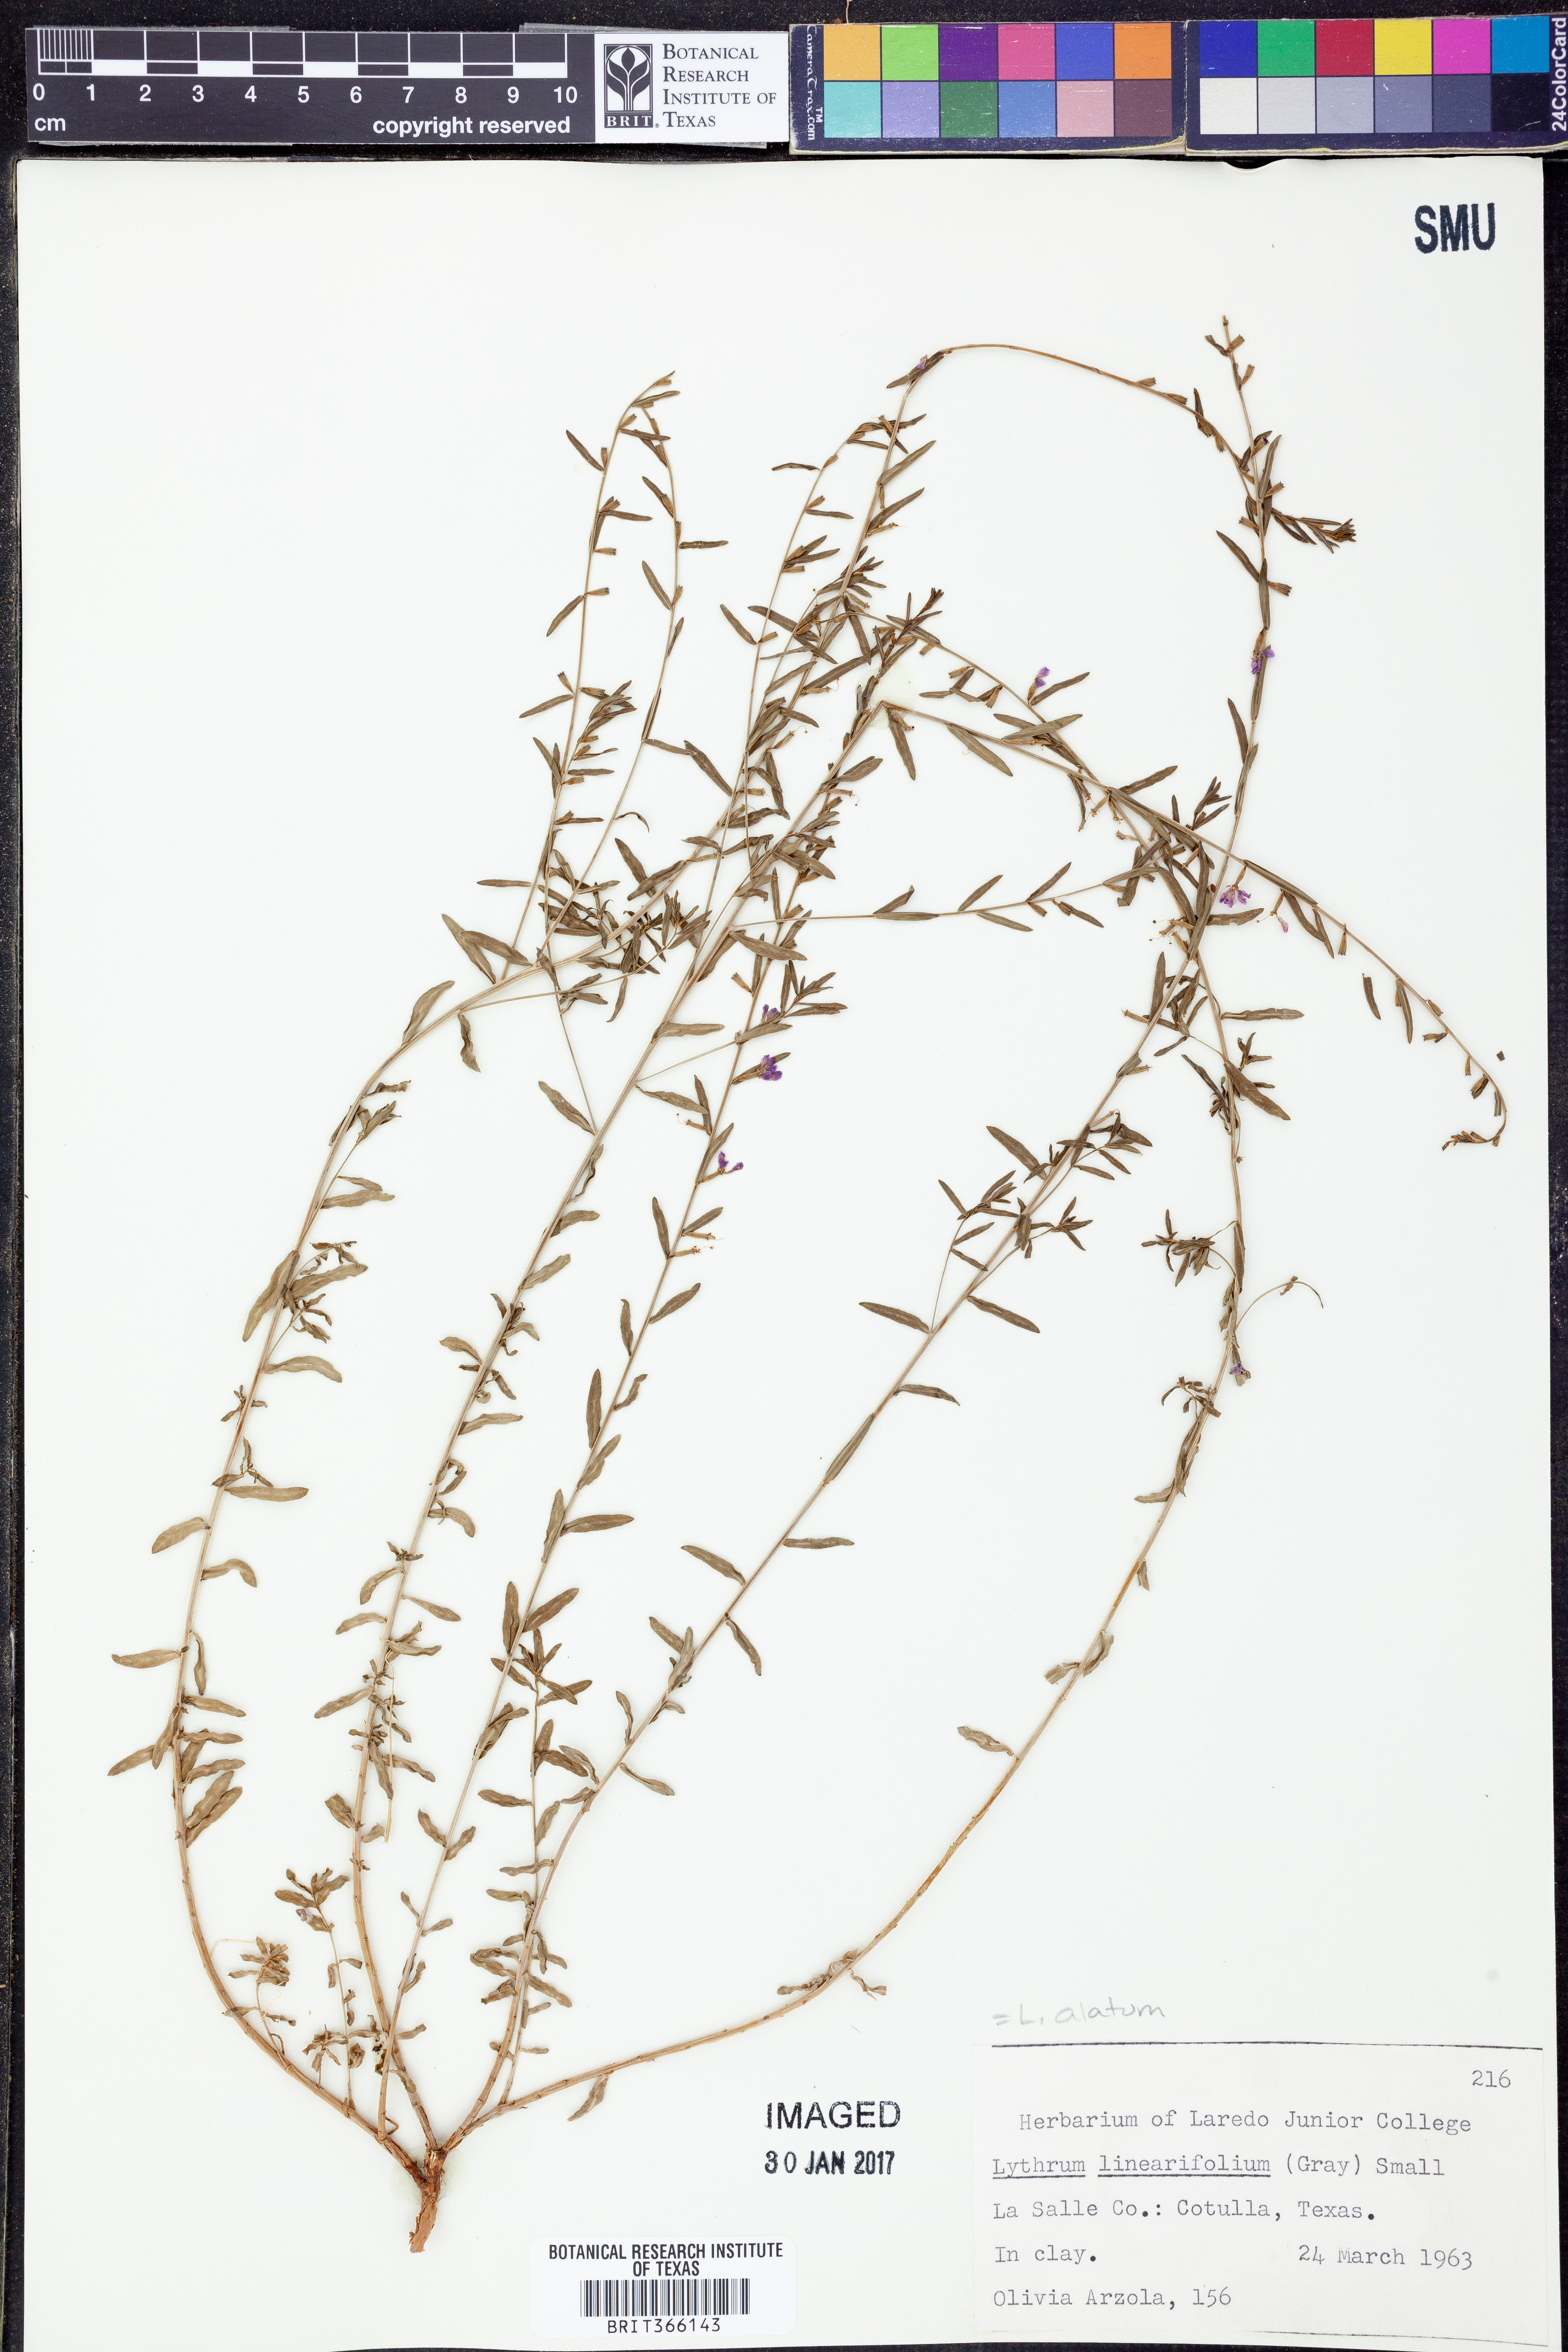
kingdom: Plantae
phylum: Tracheophyta
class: Magnoliopsida
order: Myrtales
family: Lythraceae
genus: Lythrum
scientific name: Lythrum alatum
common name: Winged loosestrife
